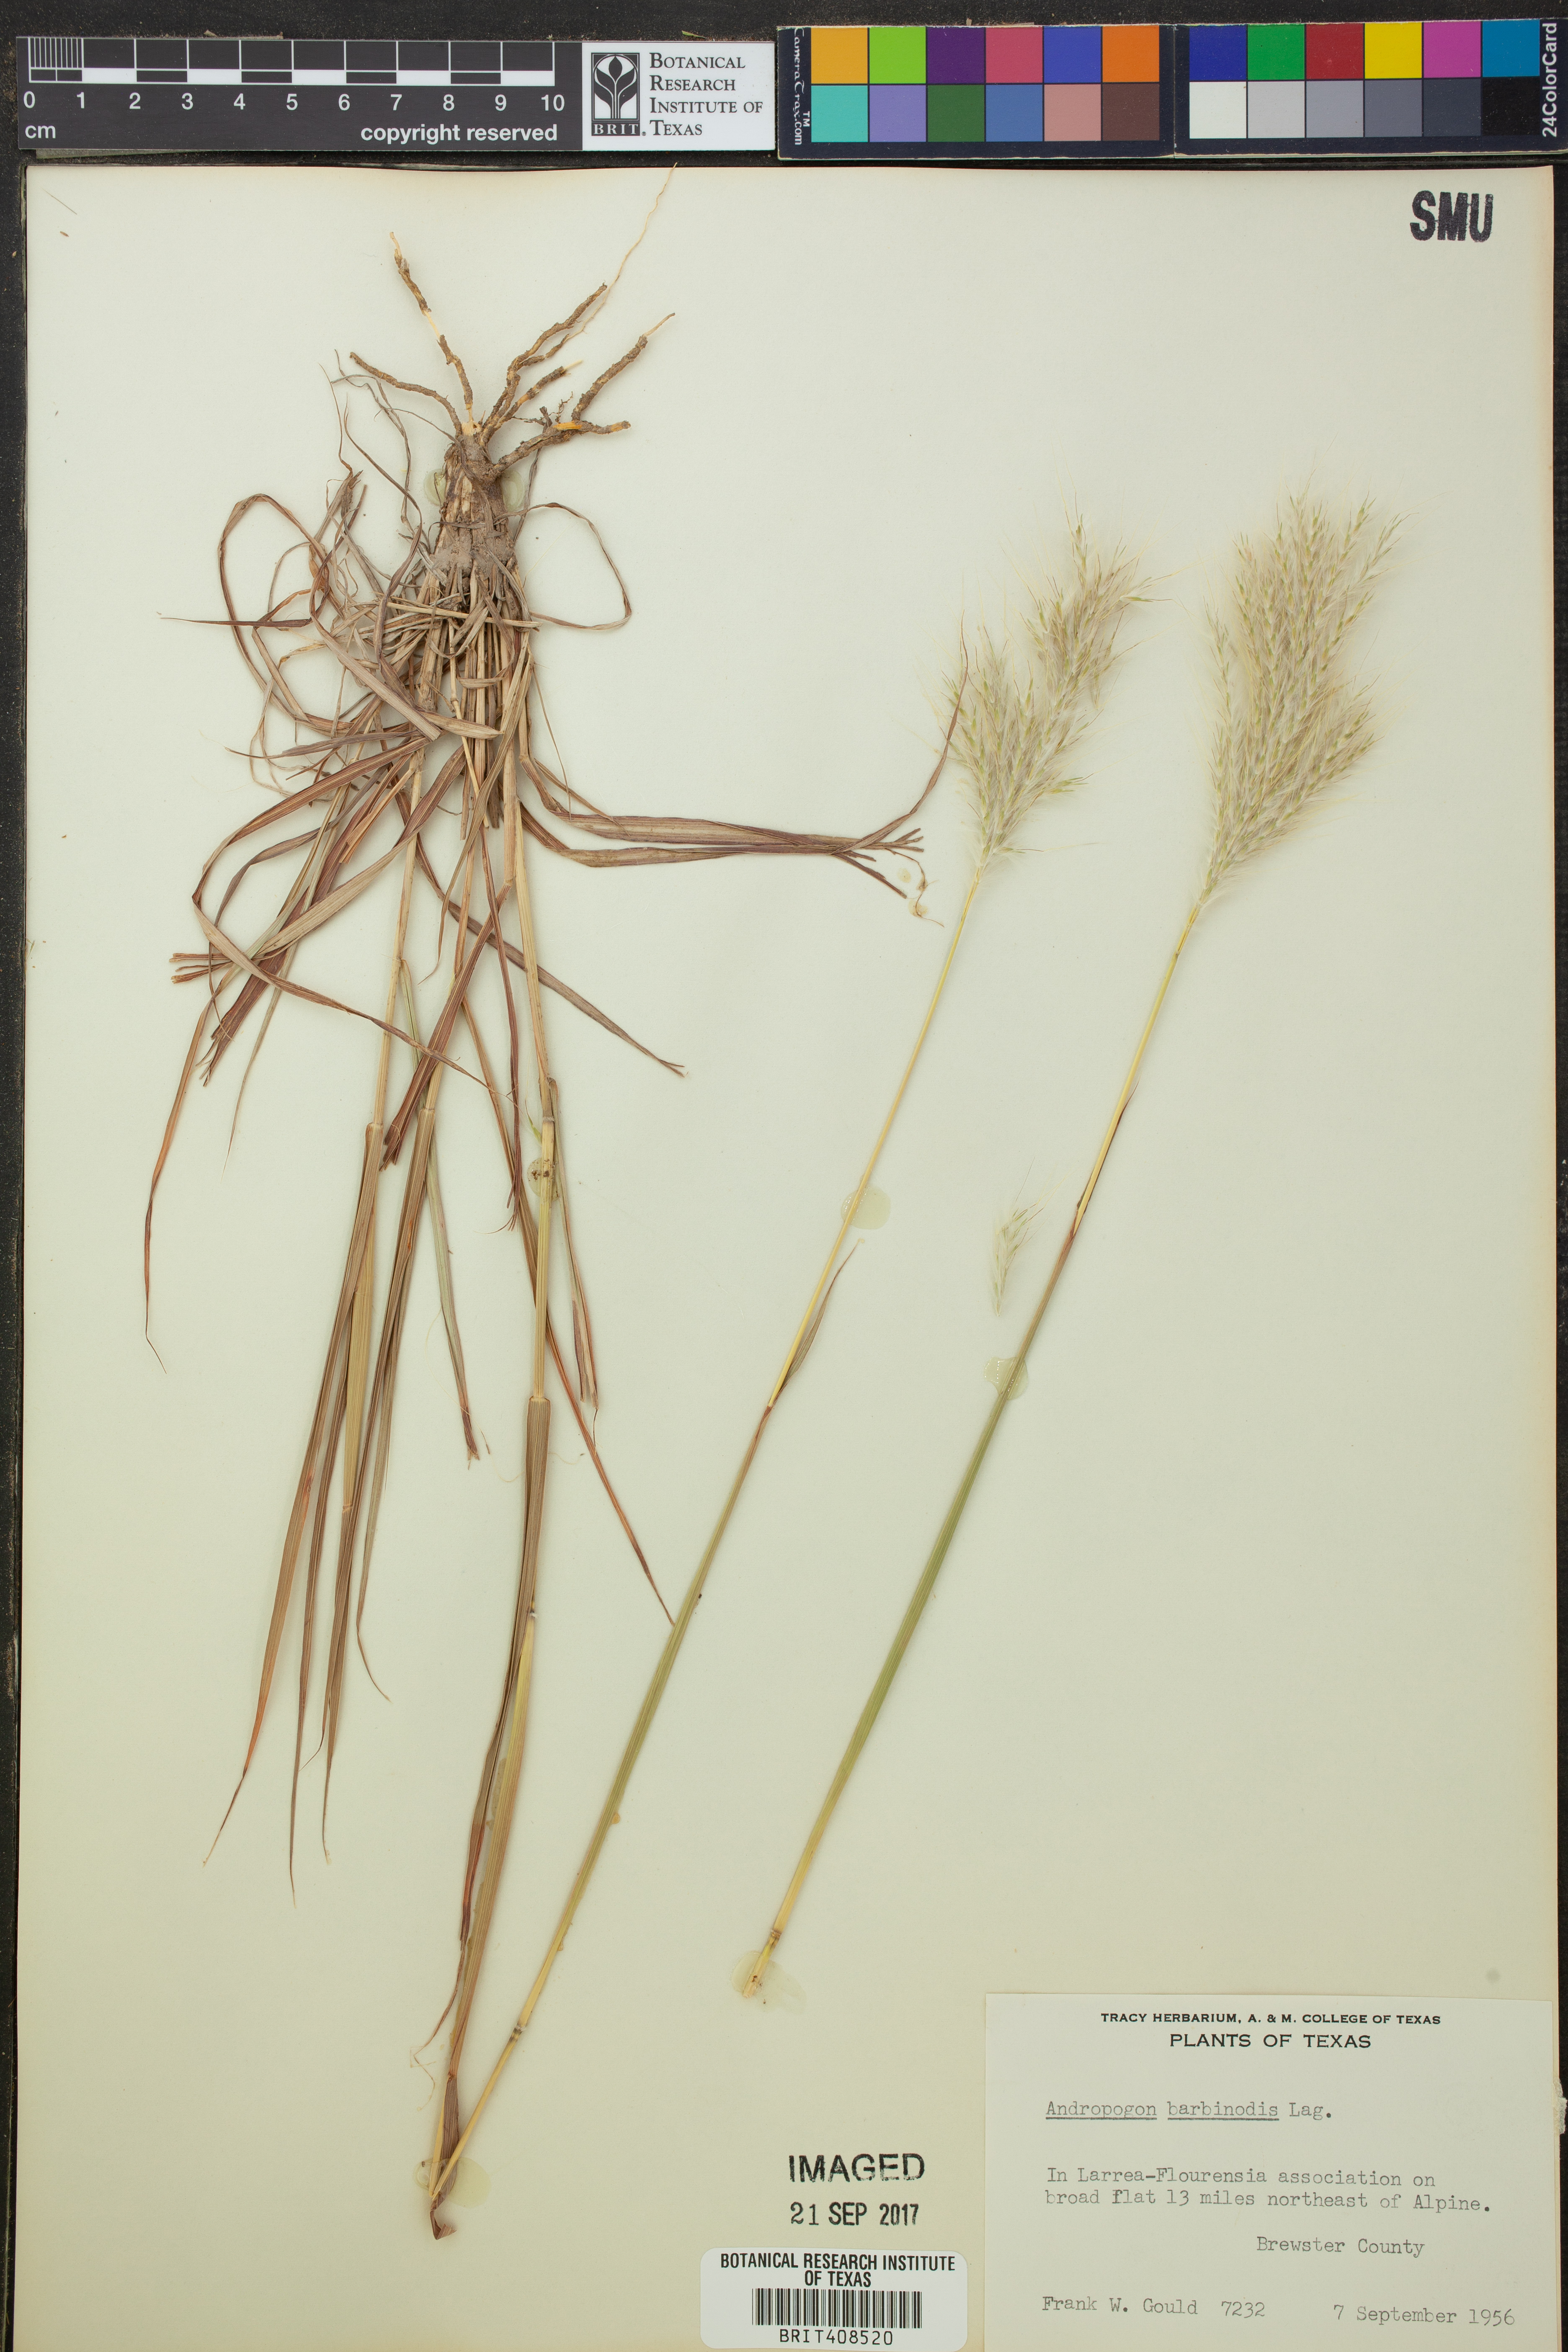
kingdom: Plantae
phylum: Tracheophyta
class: Liliopsida
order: Poales
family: Poaceae
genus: Bothriochloa
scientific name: Bothriochloa barbinodis
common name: Cane bluestem
